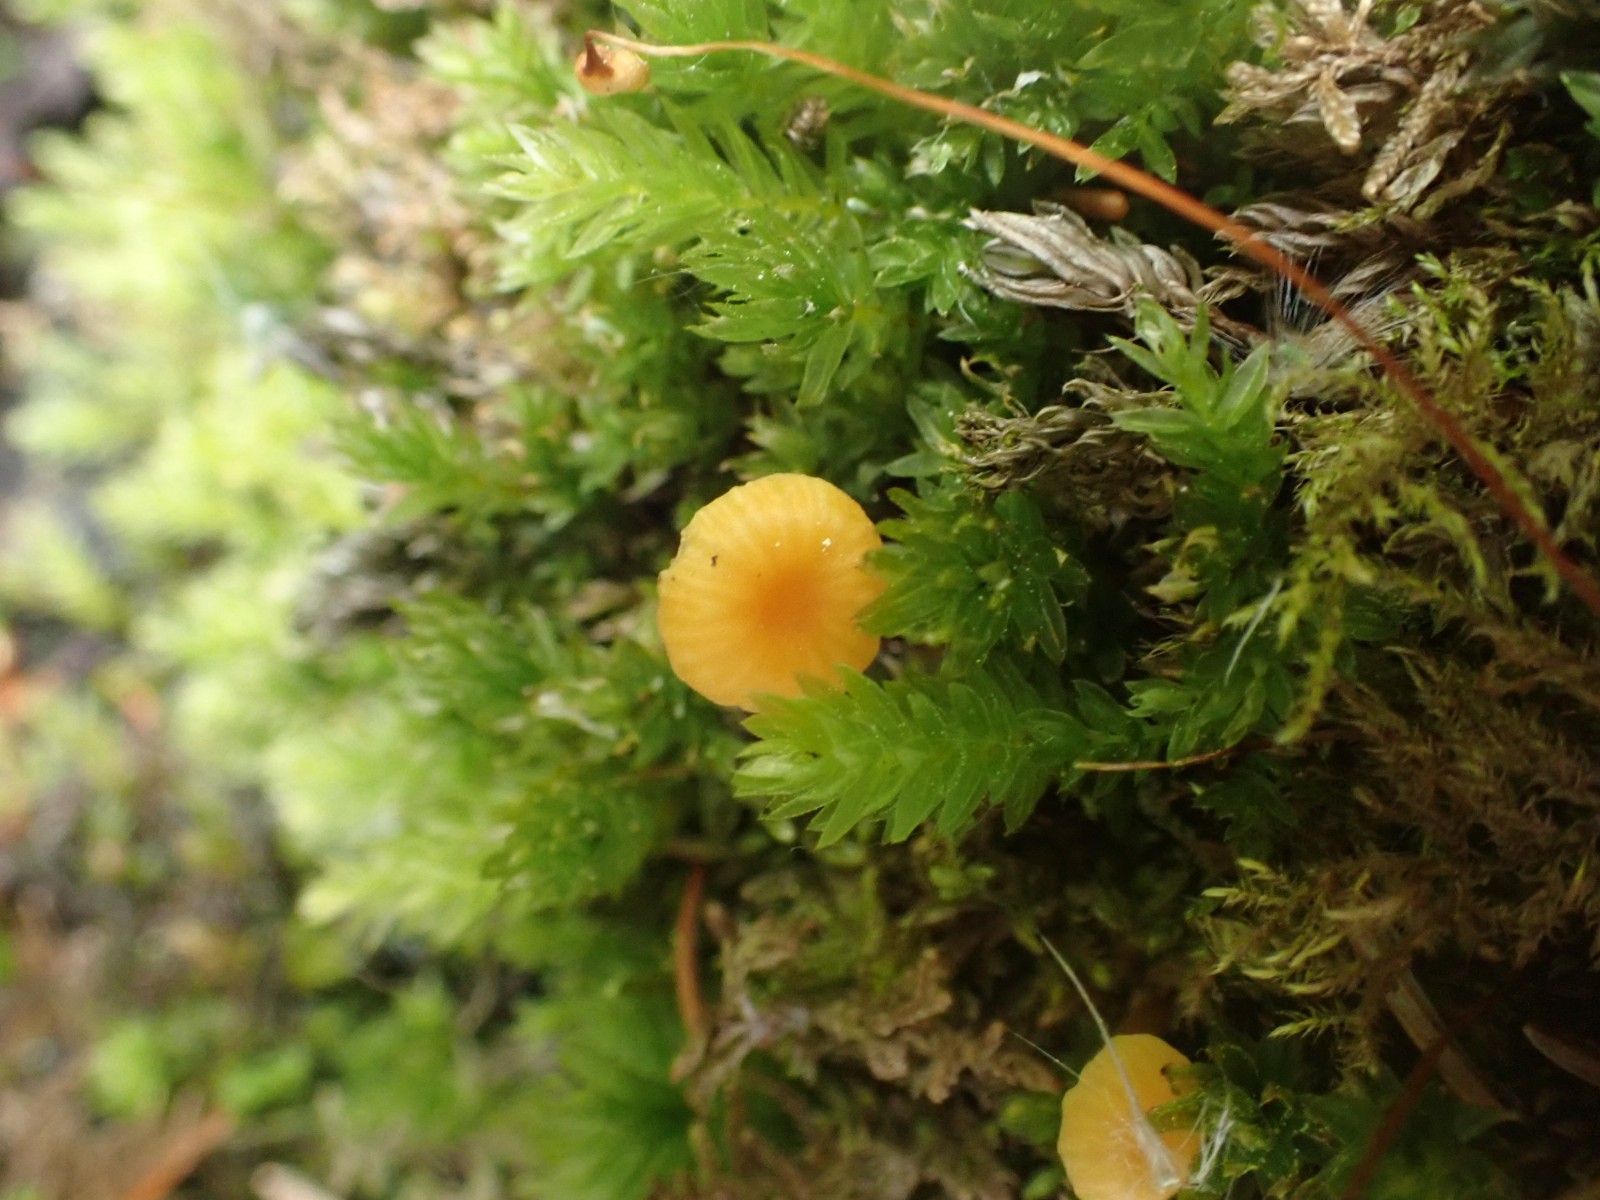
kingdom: Fungi
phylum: Basidiomycota
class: Agaricomycetes
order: Hymenochaetales
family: Rickenellaceae
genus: Rickenella
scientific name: Rickenella fibula
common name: orange mosnavlehat
